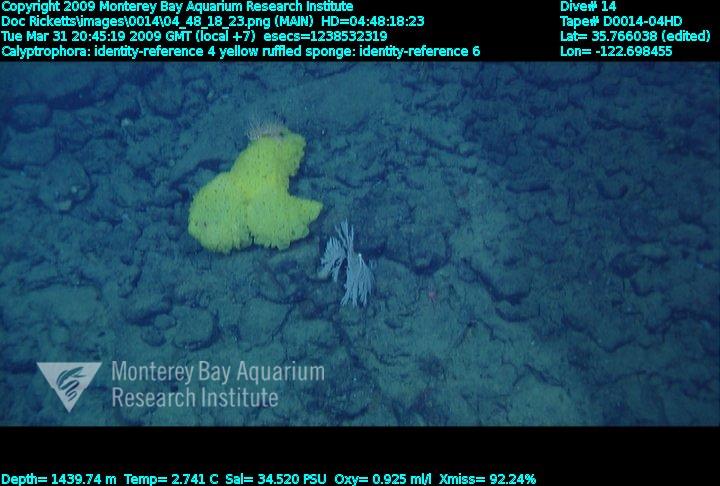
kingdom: Animalia
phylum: Porifera
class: Hexactinellida
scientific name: Hexactinellida
